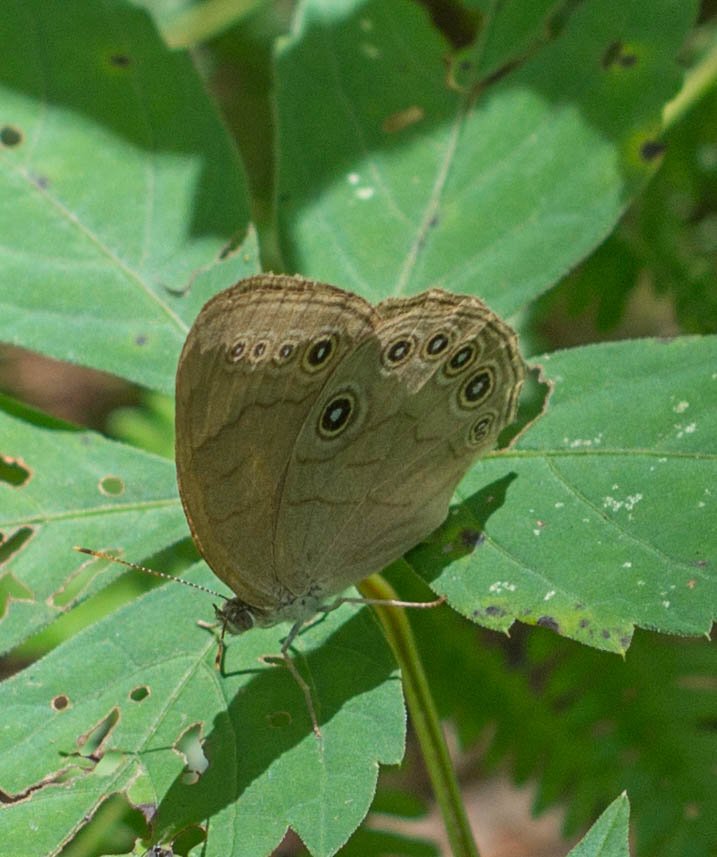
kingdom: Animalia
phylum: Arthropoda
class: Insecta
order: Lepidoptera
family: Nymphalidae
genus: Lethe
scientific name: Lethe eurydice
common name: Appalachian Eyed Brown
